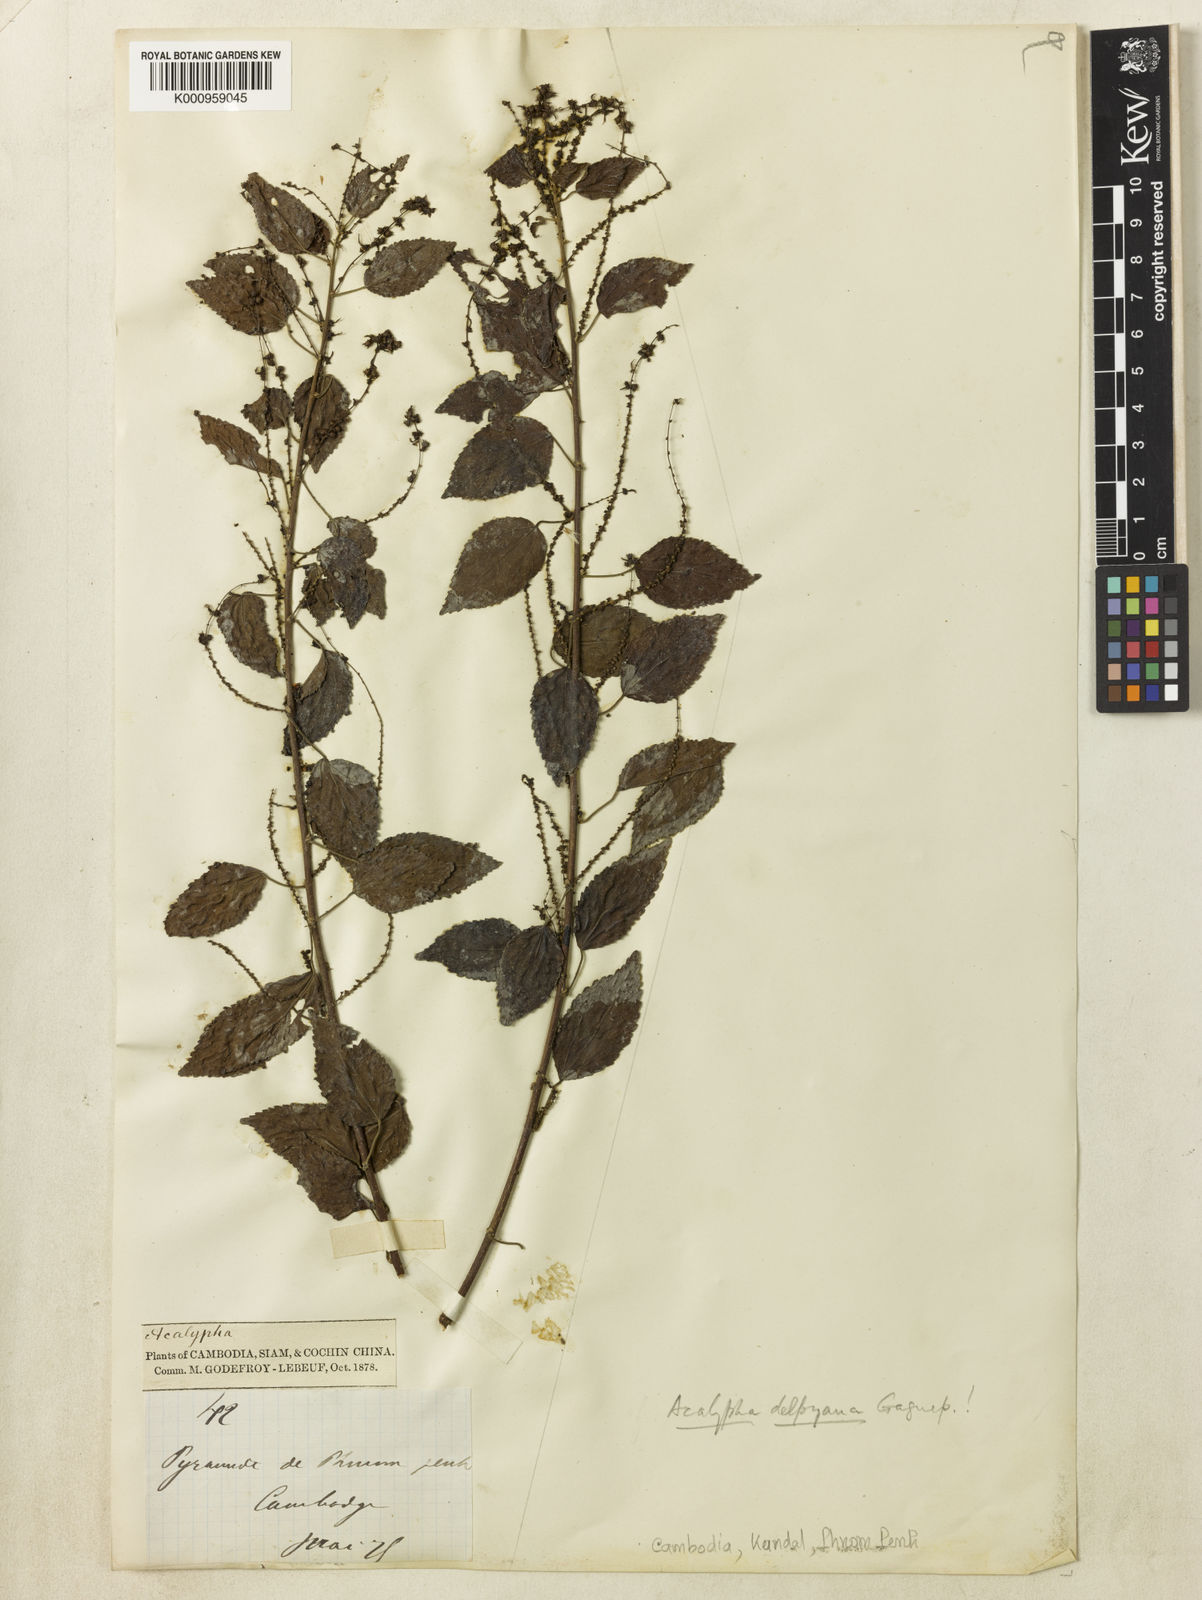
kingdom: Plantae
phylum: Tracheophyta
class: Magnoliopsida
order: Malpighiales
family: Euphorbiaceae
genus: Acalypha
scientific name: Acalypha delpyana
